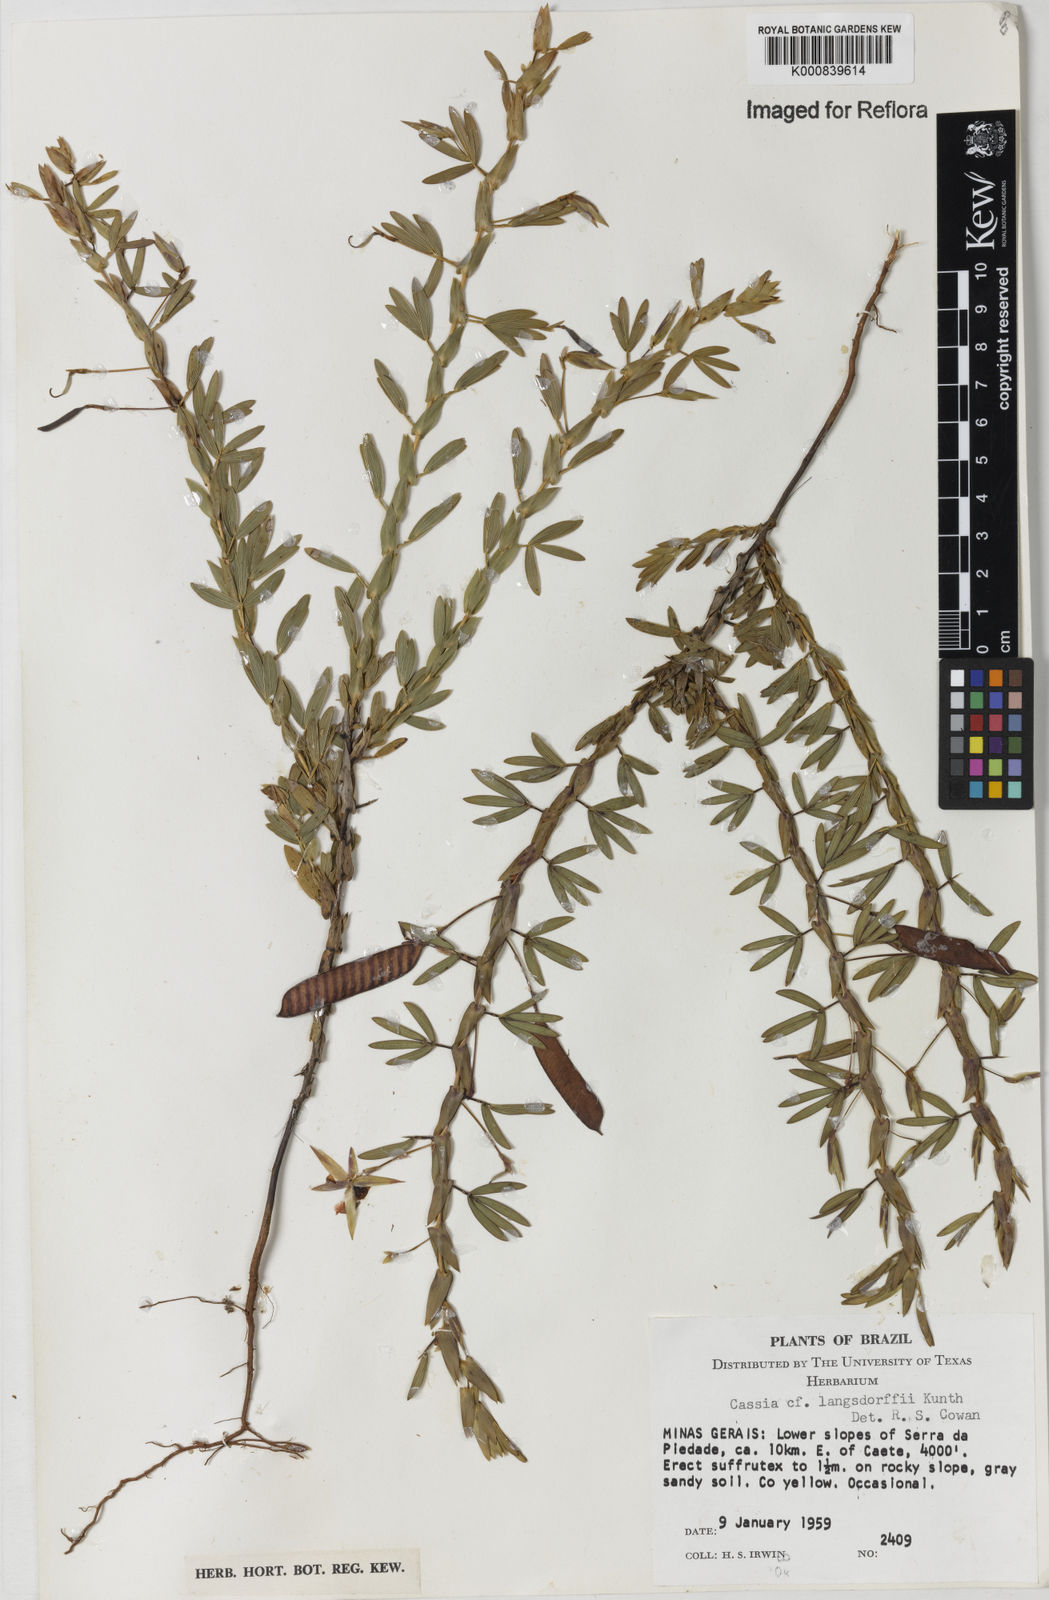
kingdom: Plantae
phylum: Tracheophyta
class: Magnoliopsida
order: Fabales
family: Fabaceae
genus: Chamaecrista
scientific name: Chamaecrista langsdorffii
